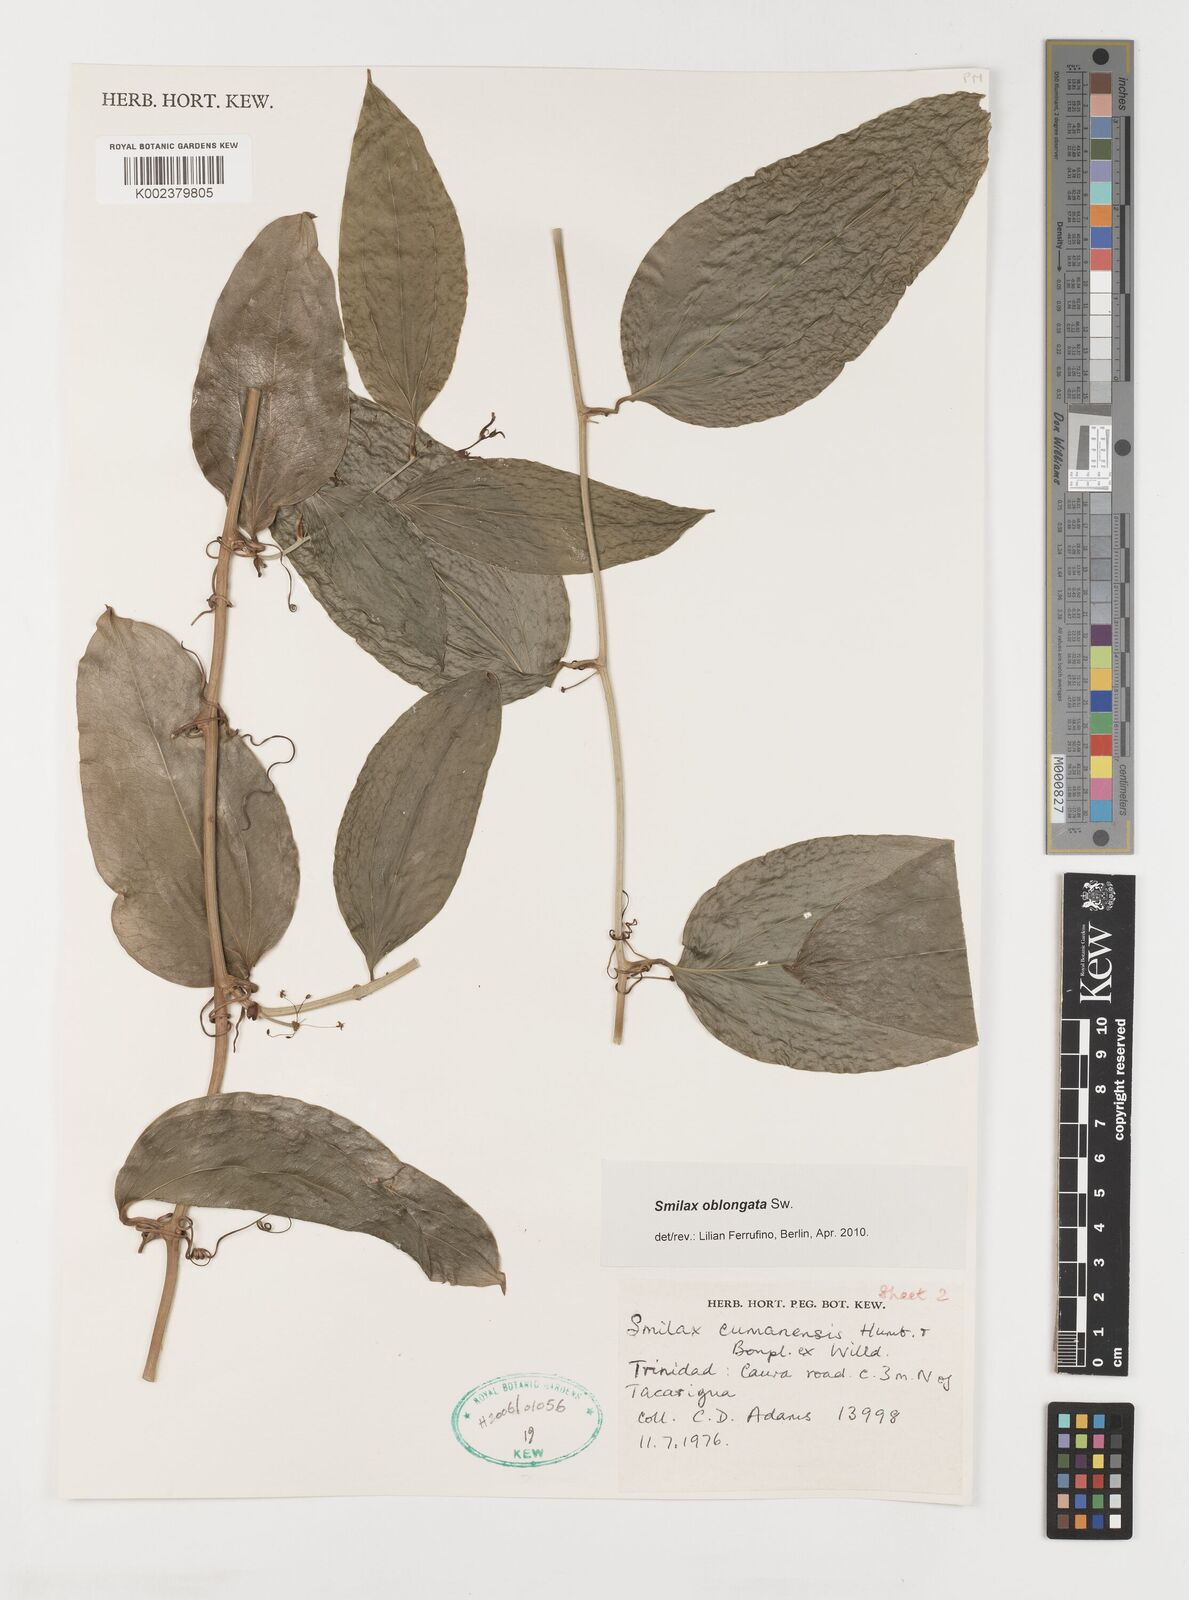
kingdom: Plantae
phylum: Tracheophyta
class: Liliopsida
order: Liliales
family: Smilacaceae
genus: Smilax
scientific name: Smilax oblongata
